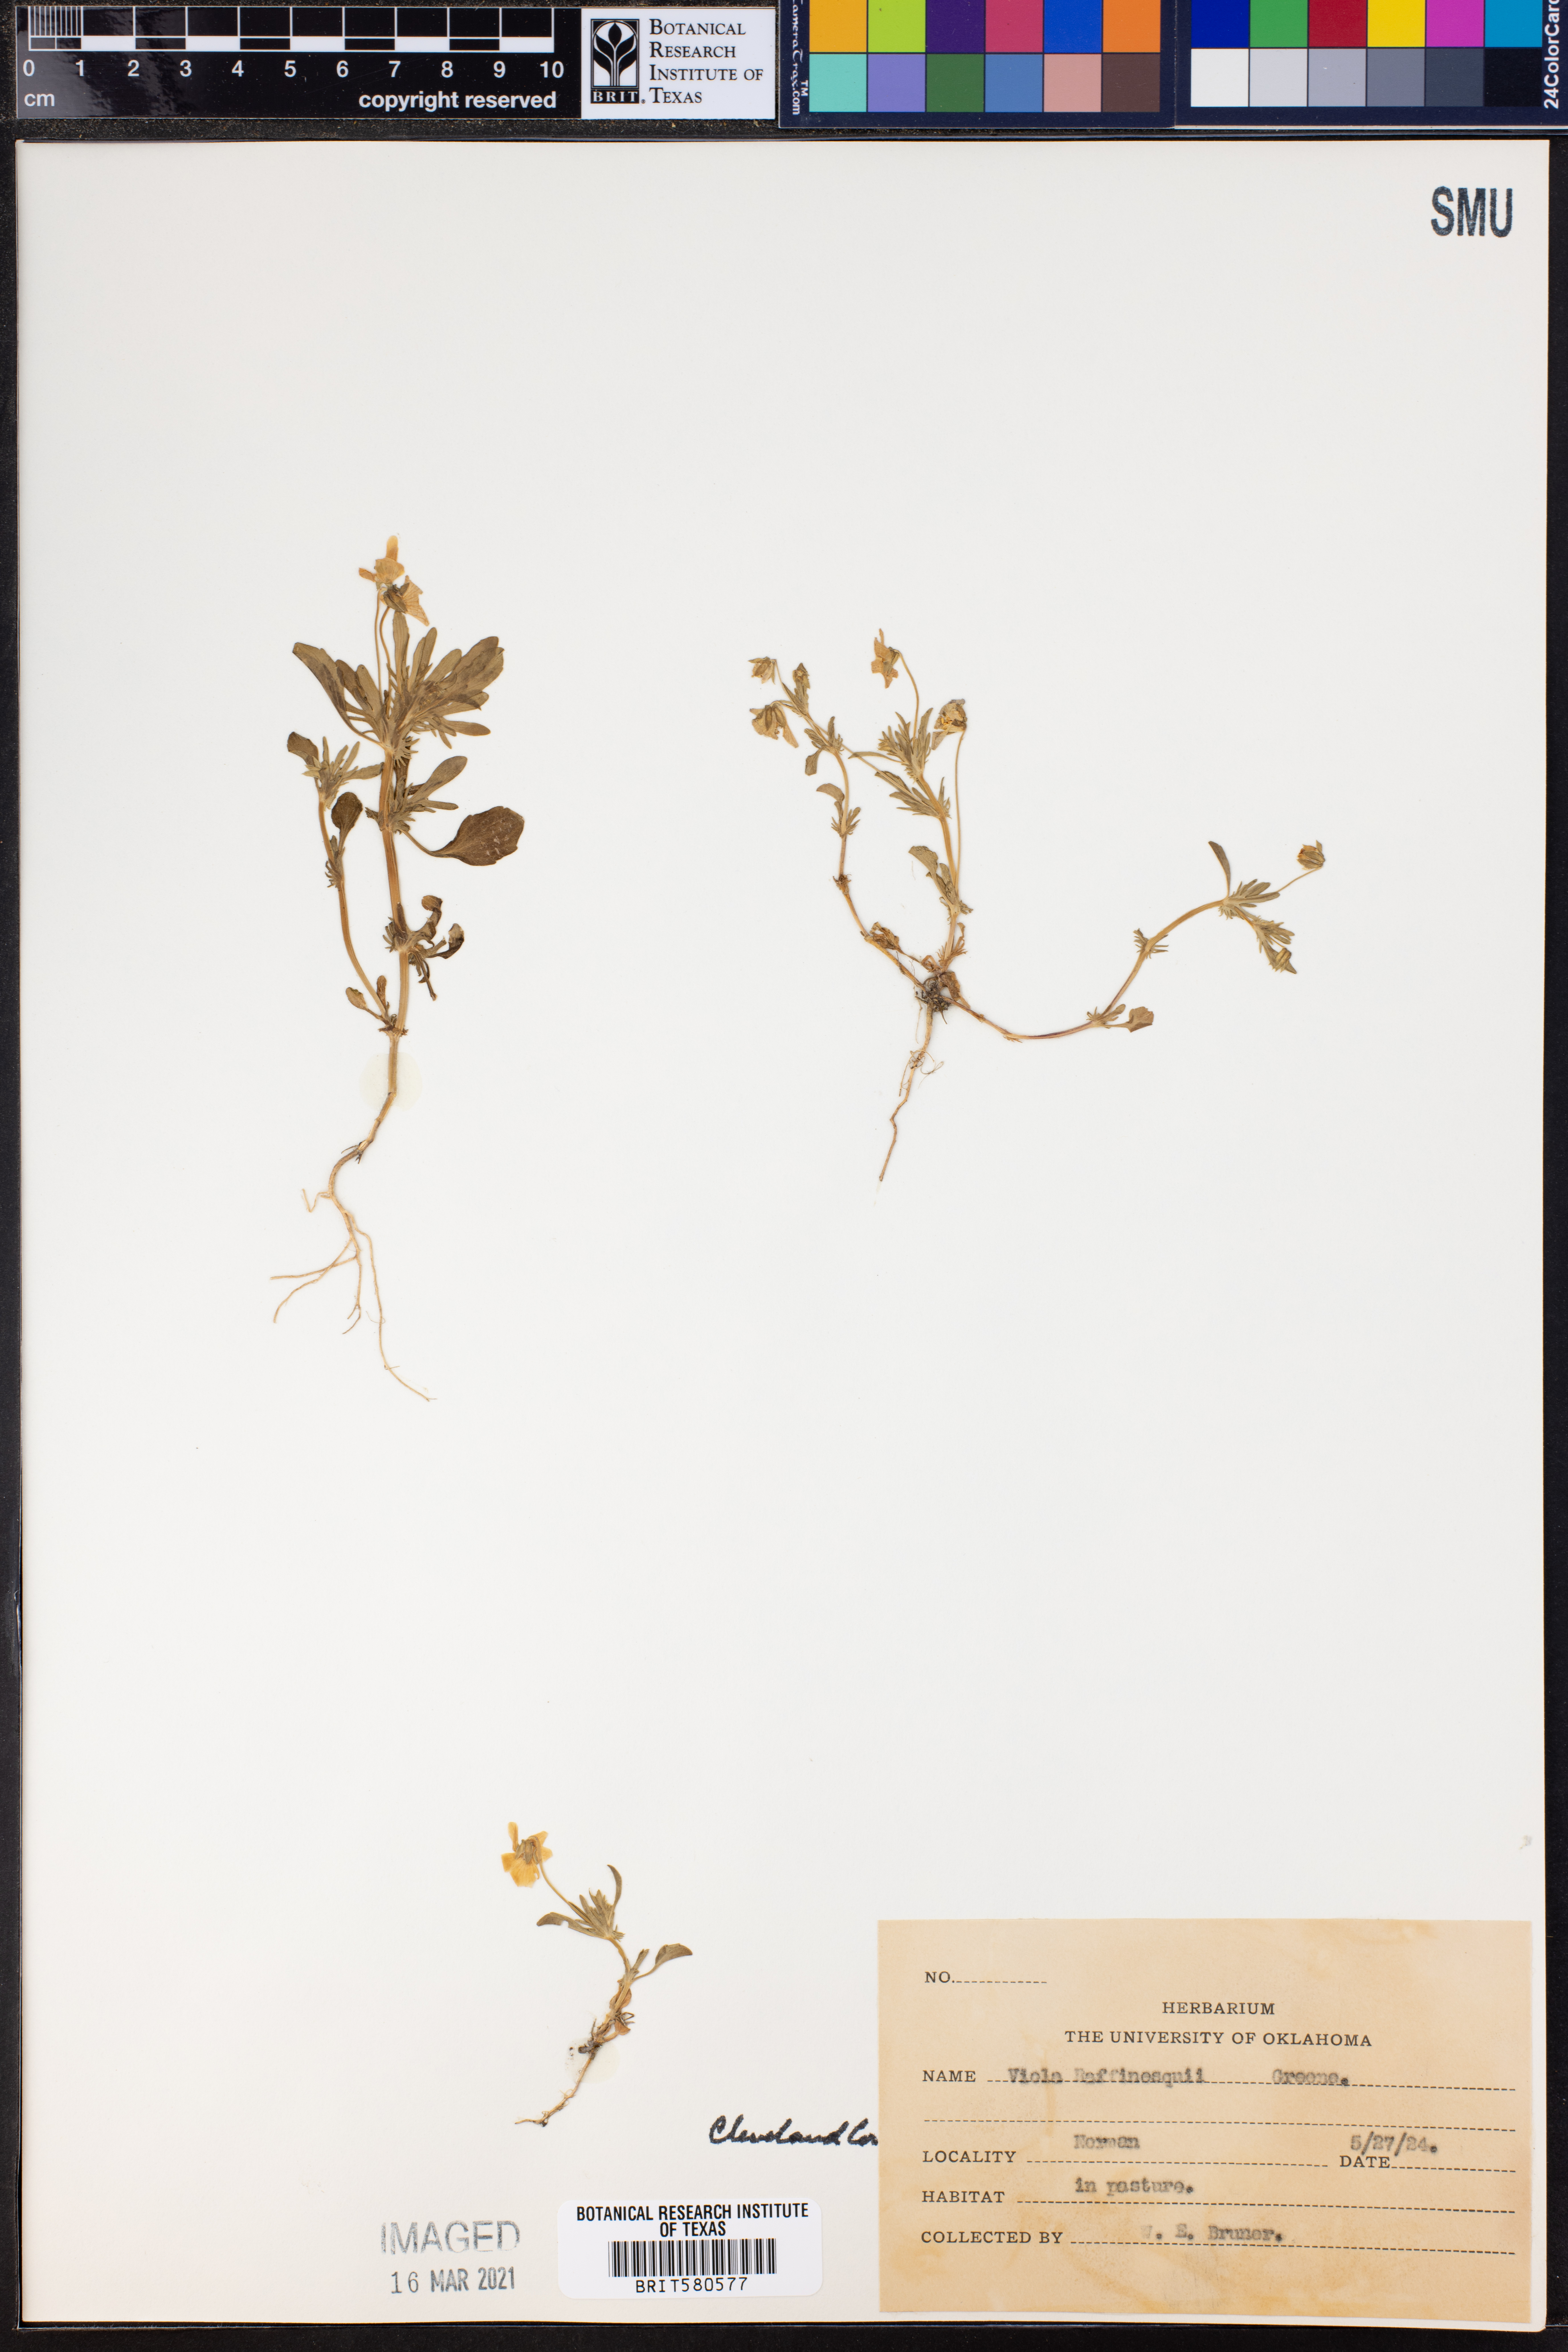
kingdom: Plantae
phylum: Tracheophyta
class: Magnoliopsida
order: Malpighiales
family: Violaceae
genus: Viola
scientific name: Viola rafinesquei
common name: American field pansy
